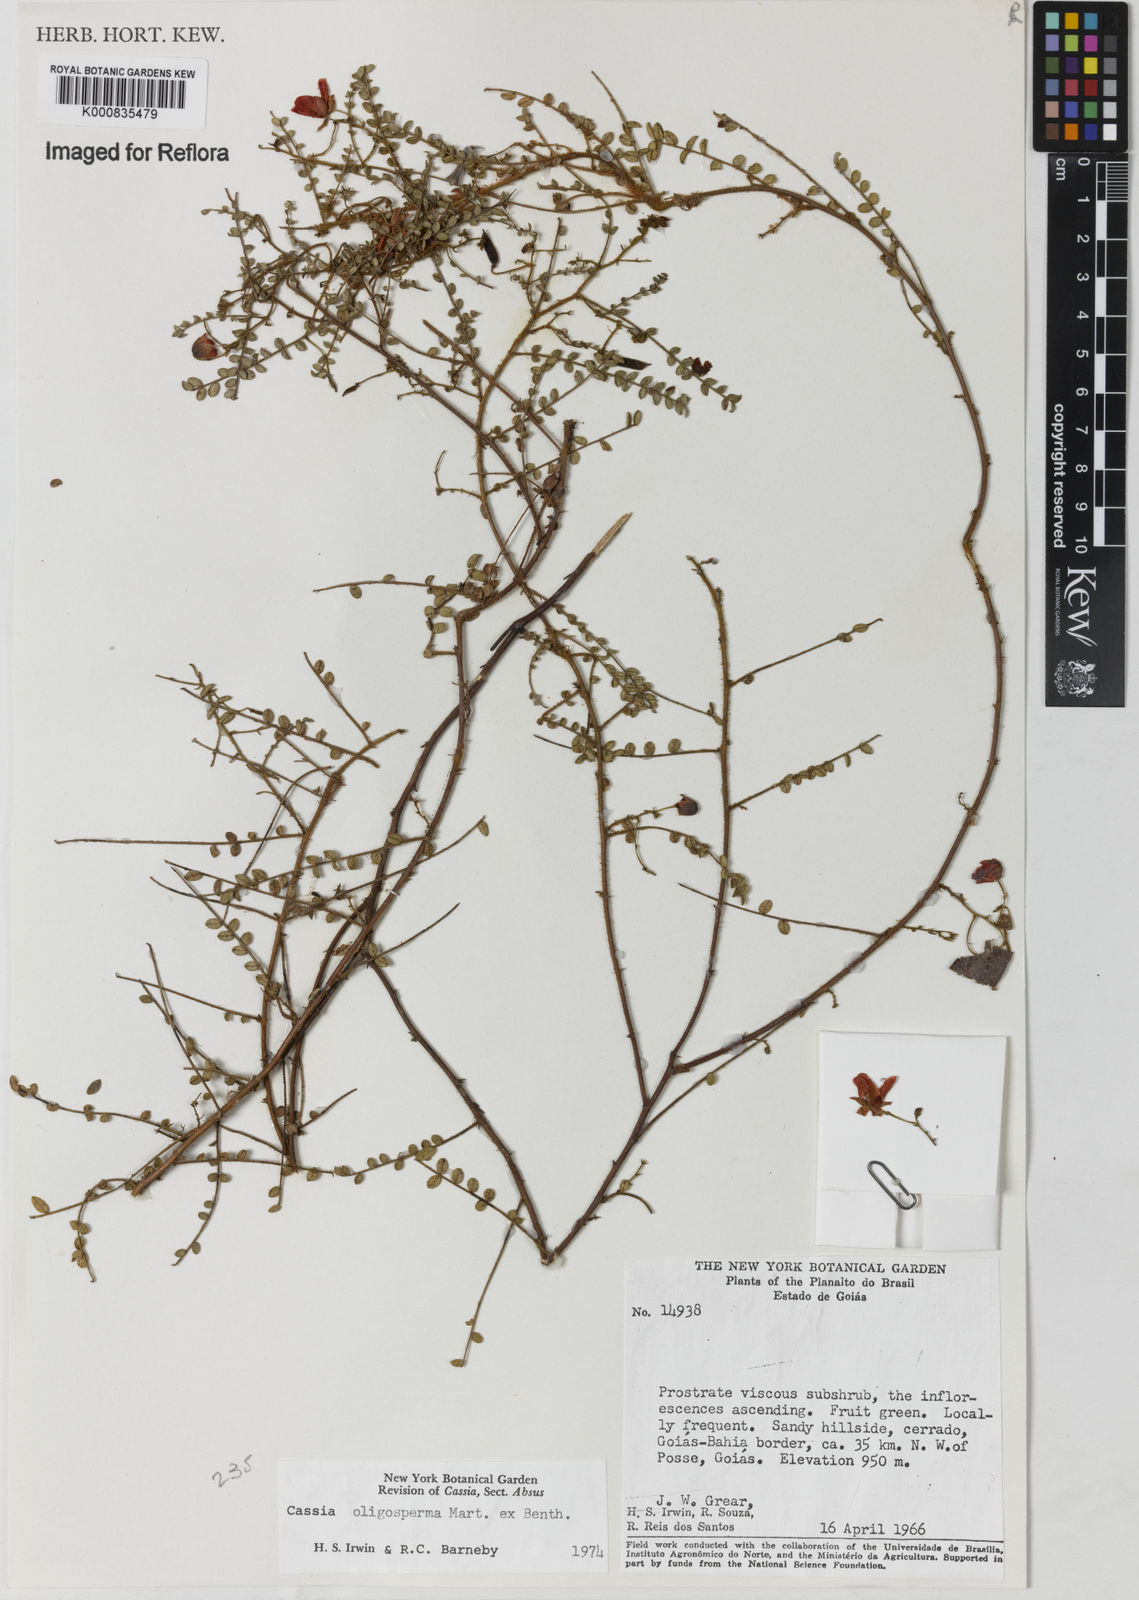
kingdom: Plantae
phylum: Tracheophyta
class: Magnoliopsida
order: Fabales
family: Fabaceae
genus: Chamaecrista
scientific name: Chamaecrista oligosperma
